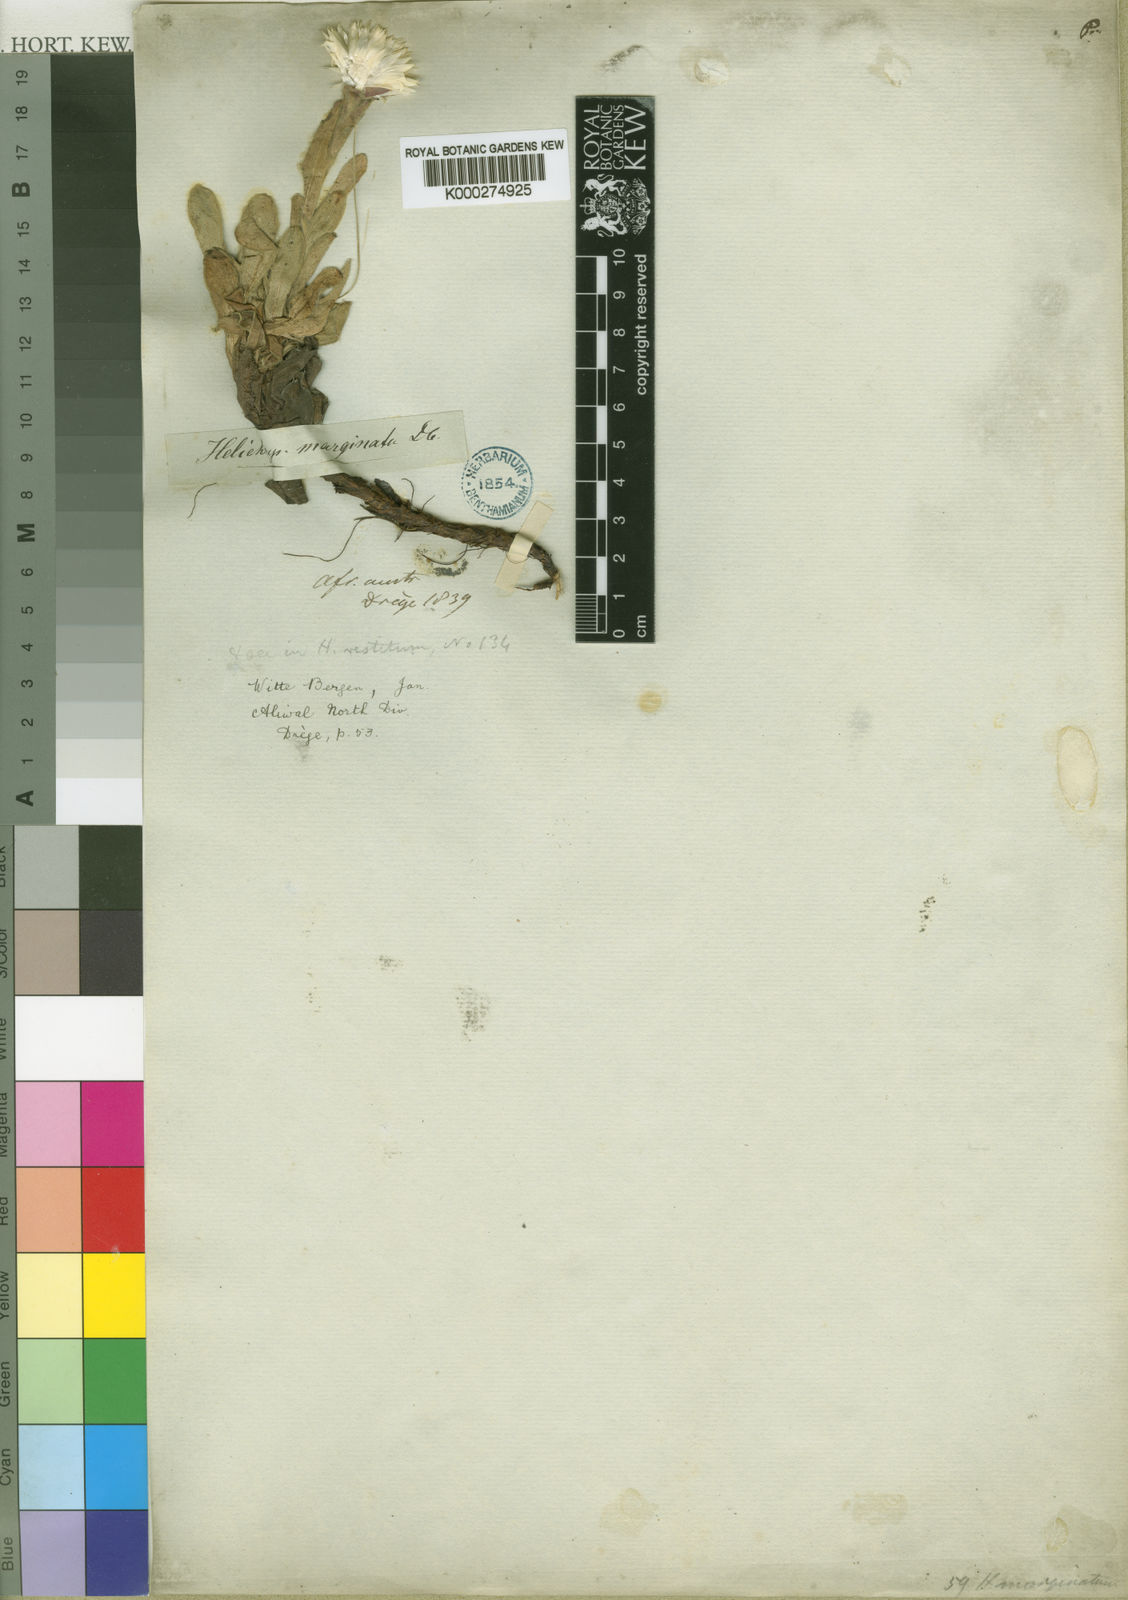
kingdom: Plantae
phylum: Tracheophyta
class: Magnoliopsida
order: Asterales
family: Asteraceae
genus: Helichrysum
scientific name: Helichrysum marginatum
